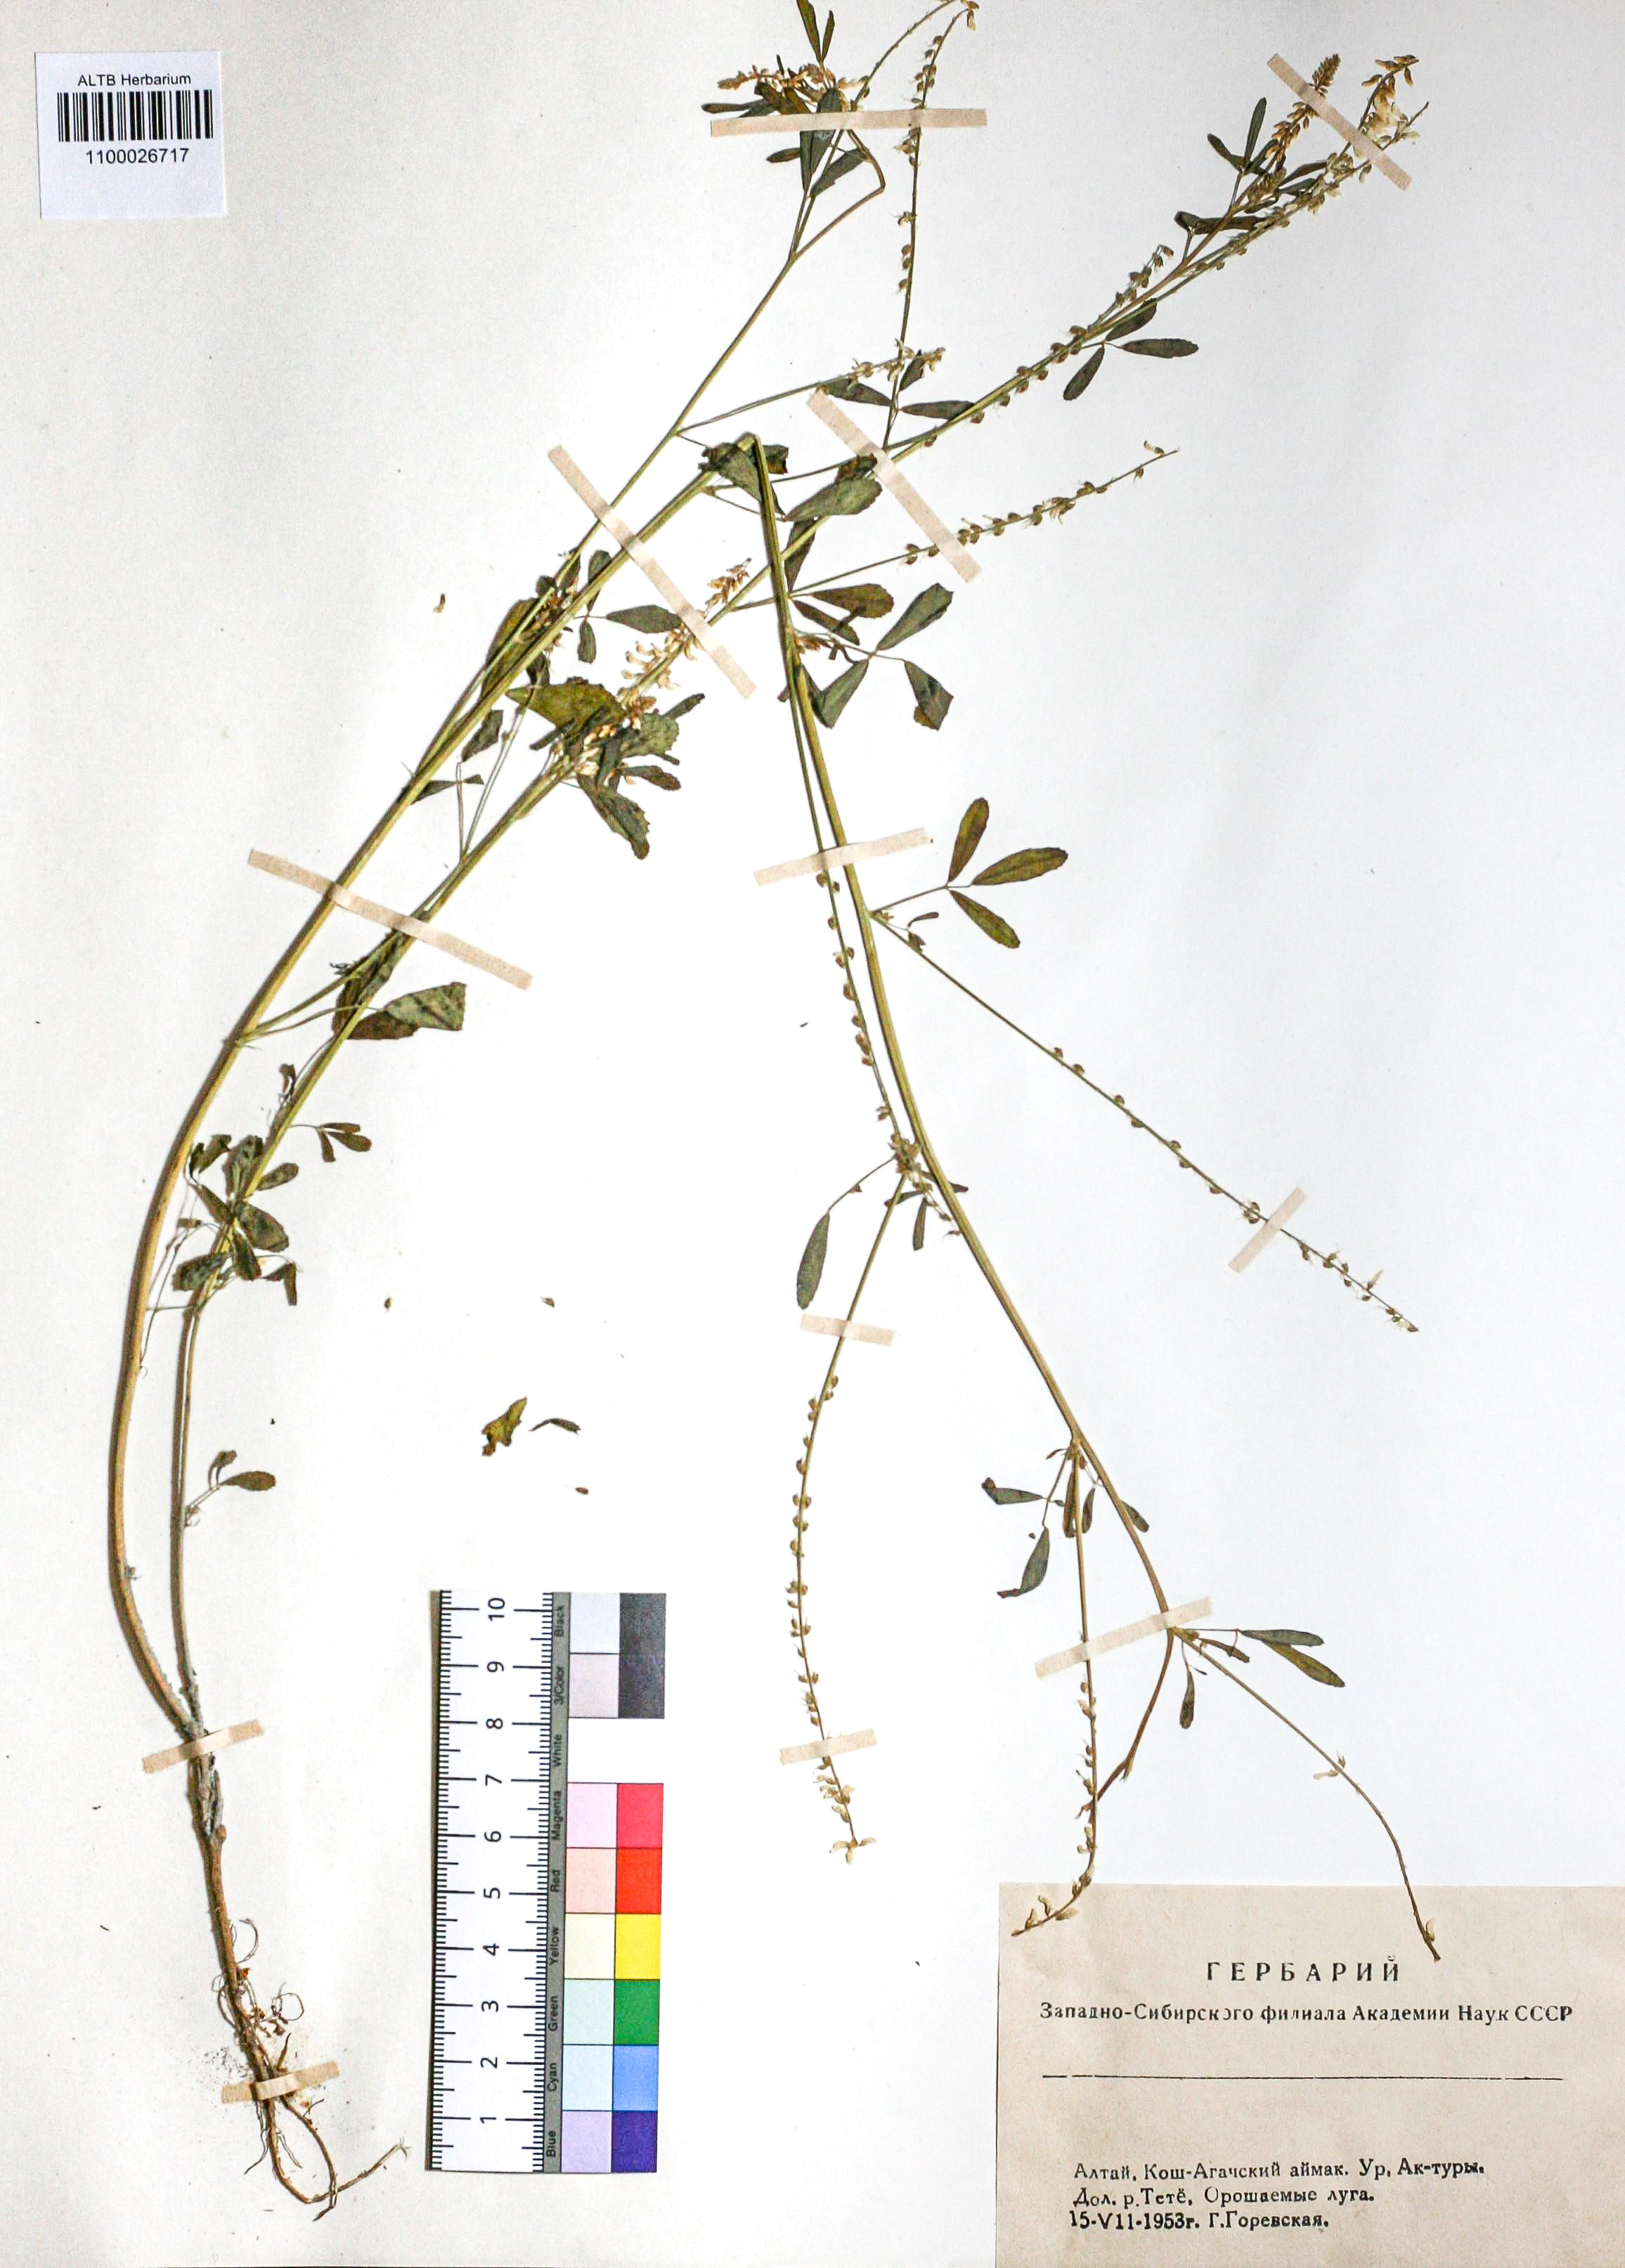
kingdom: Plantae
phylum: Tracheophyta
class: Magnoliopsida
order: Fabales
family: Fabaceae
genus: Melilotus
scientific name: Melilotus albus
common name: White melilot
